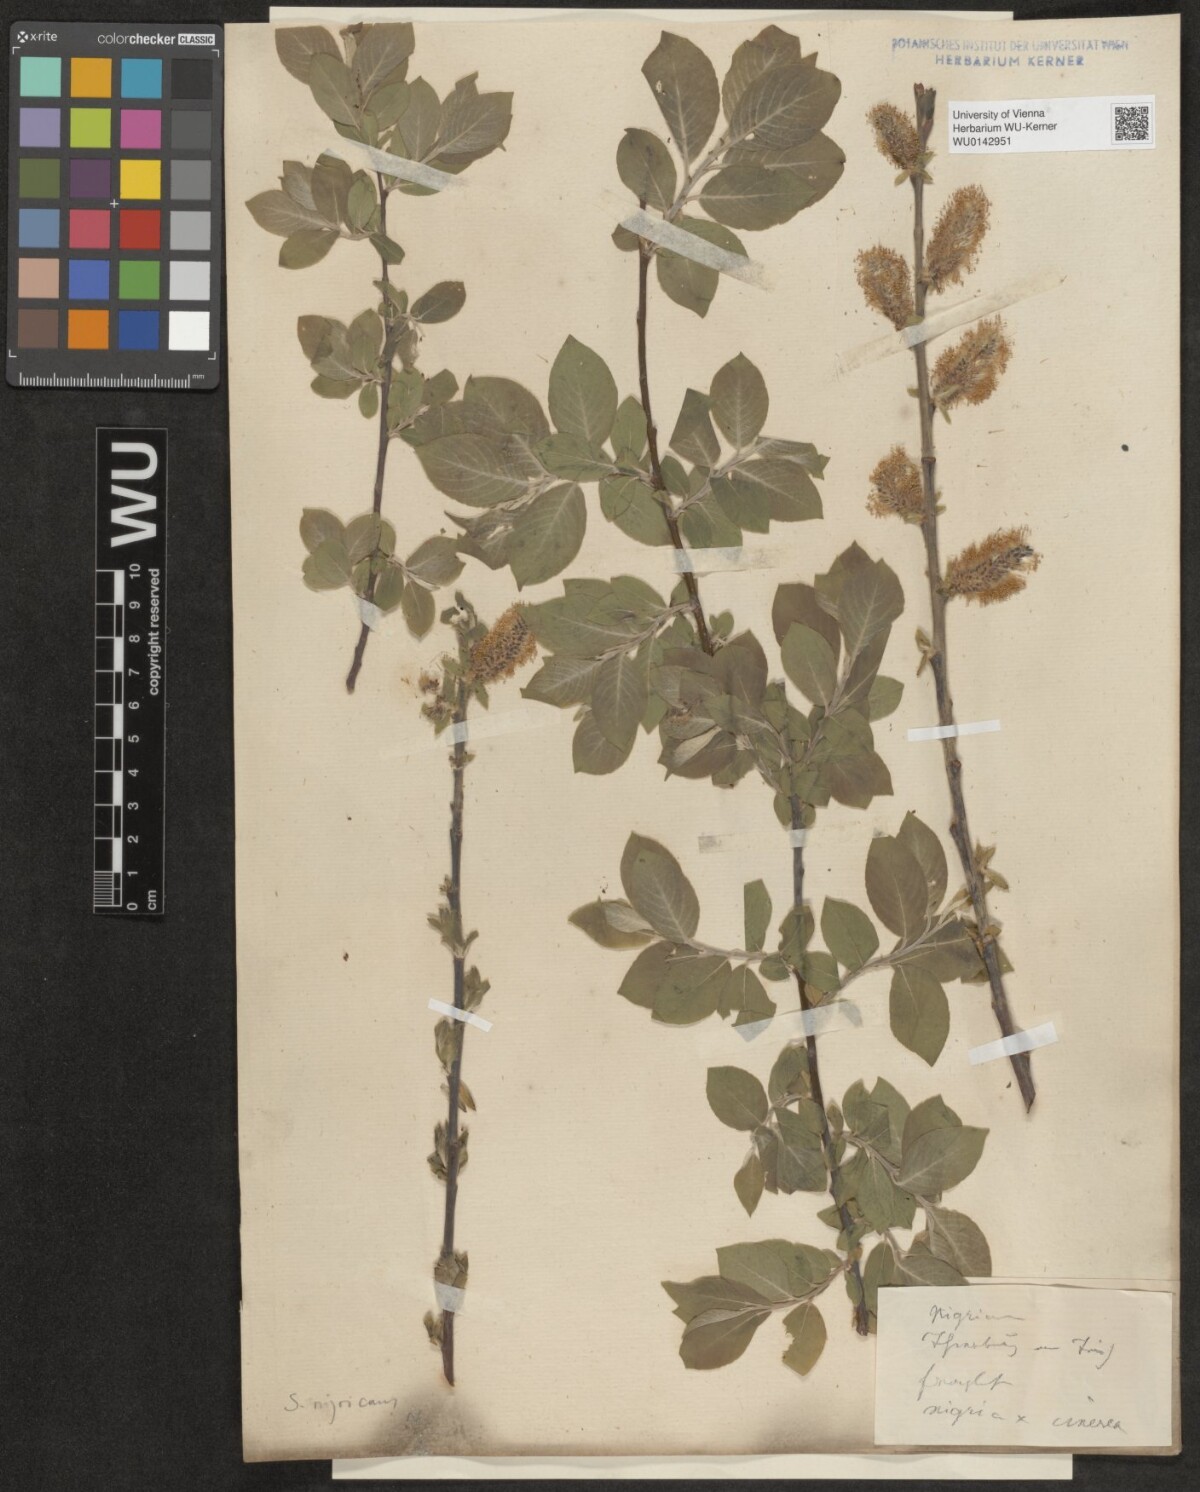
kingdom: Plantae
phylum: Tracheophyta
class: Magnoliopsida
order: Malpighiales
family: Salicaceae
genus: Salix
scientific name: Salix myrsinifolia
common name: Dark-leaved willow
